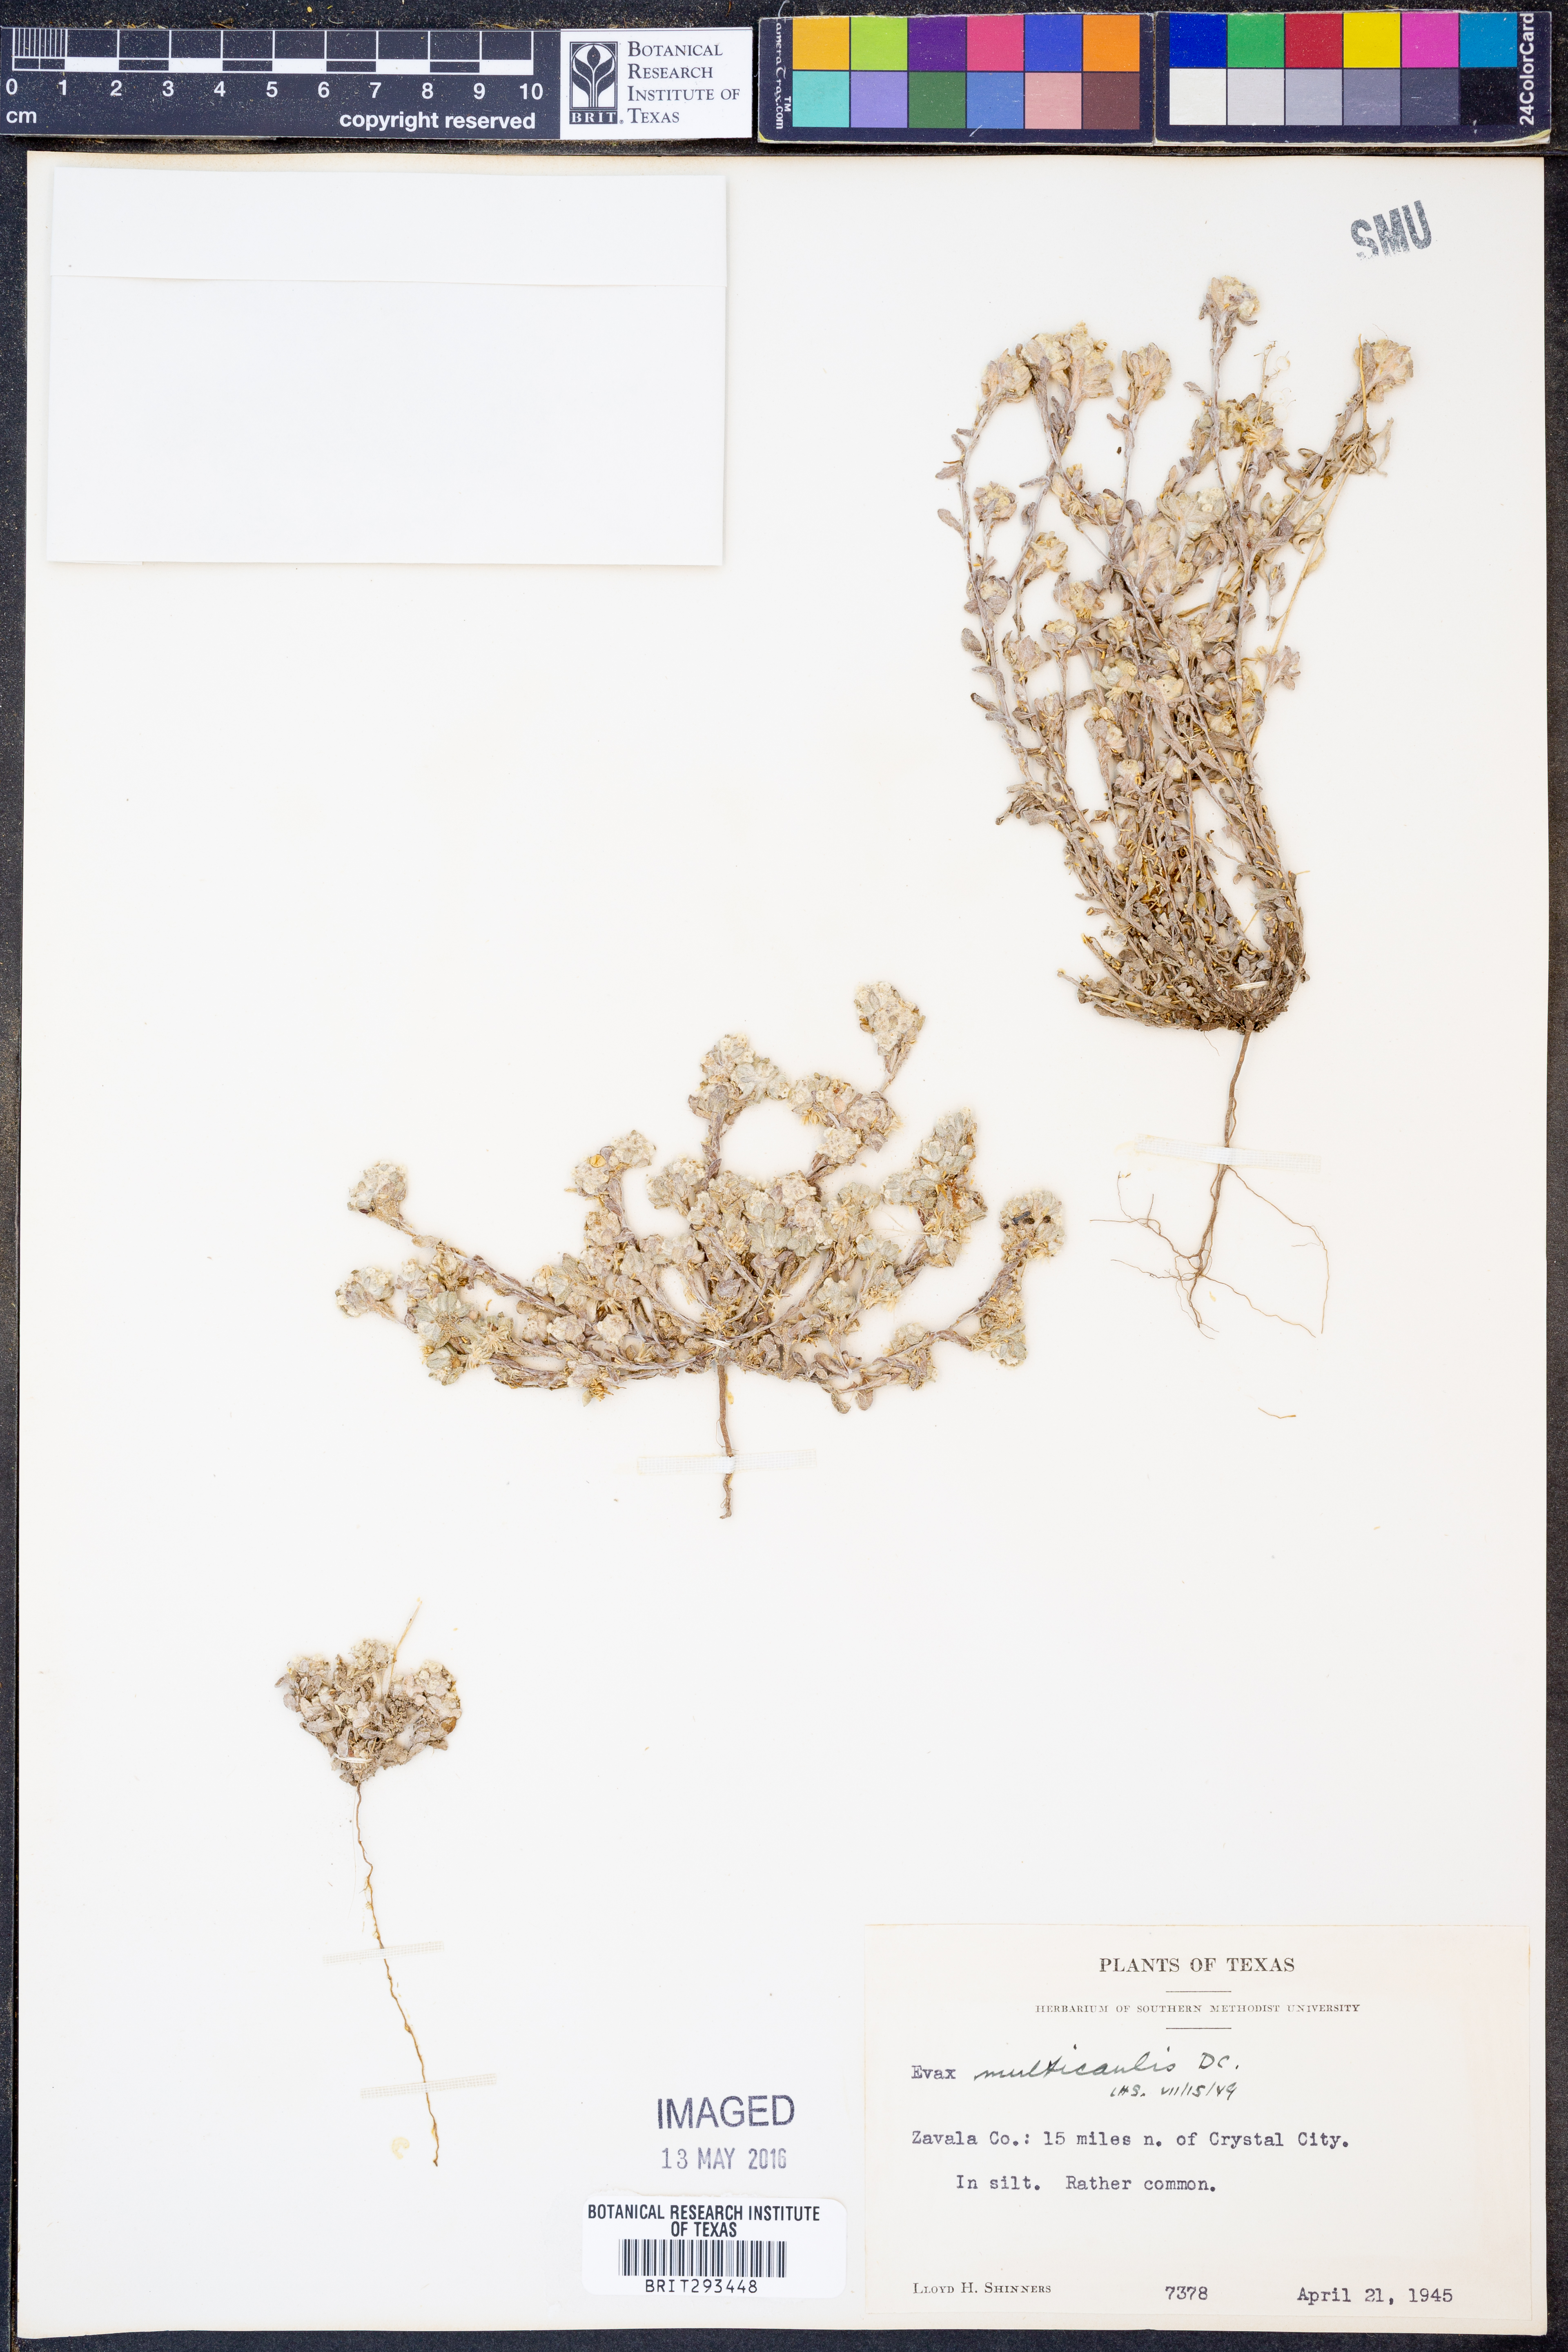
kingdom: Plantae
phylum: Tracheophyta
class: Magnoliopsida
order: Asterales
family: Asteraceae
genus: Diaperia
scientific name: Diaperia verna
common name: Many-stem rabbit-tobacco
